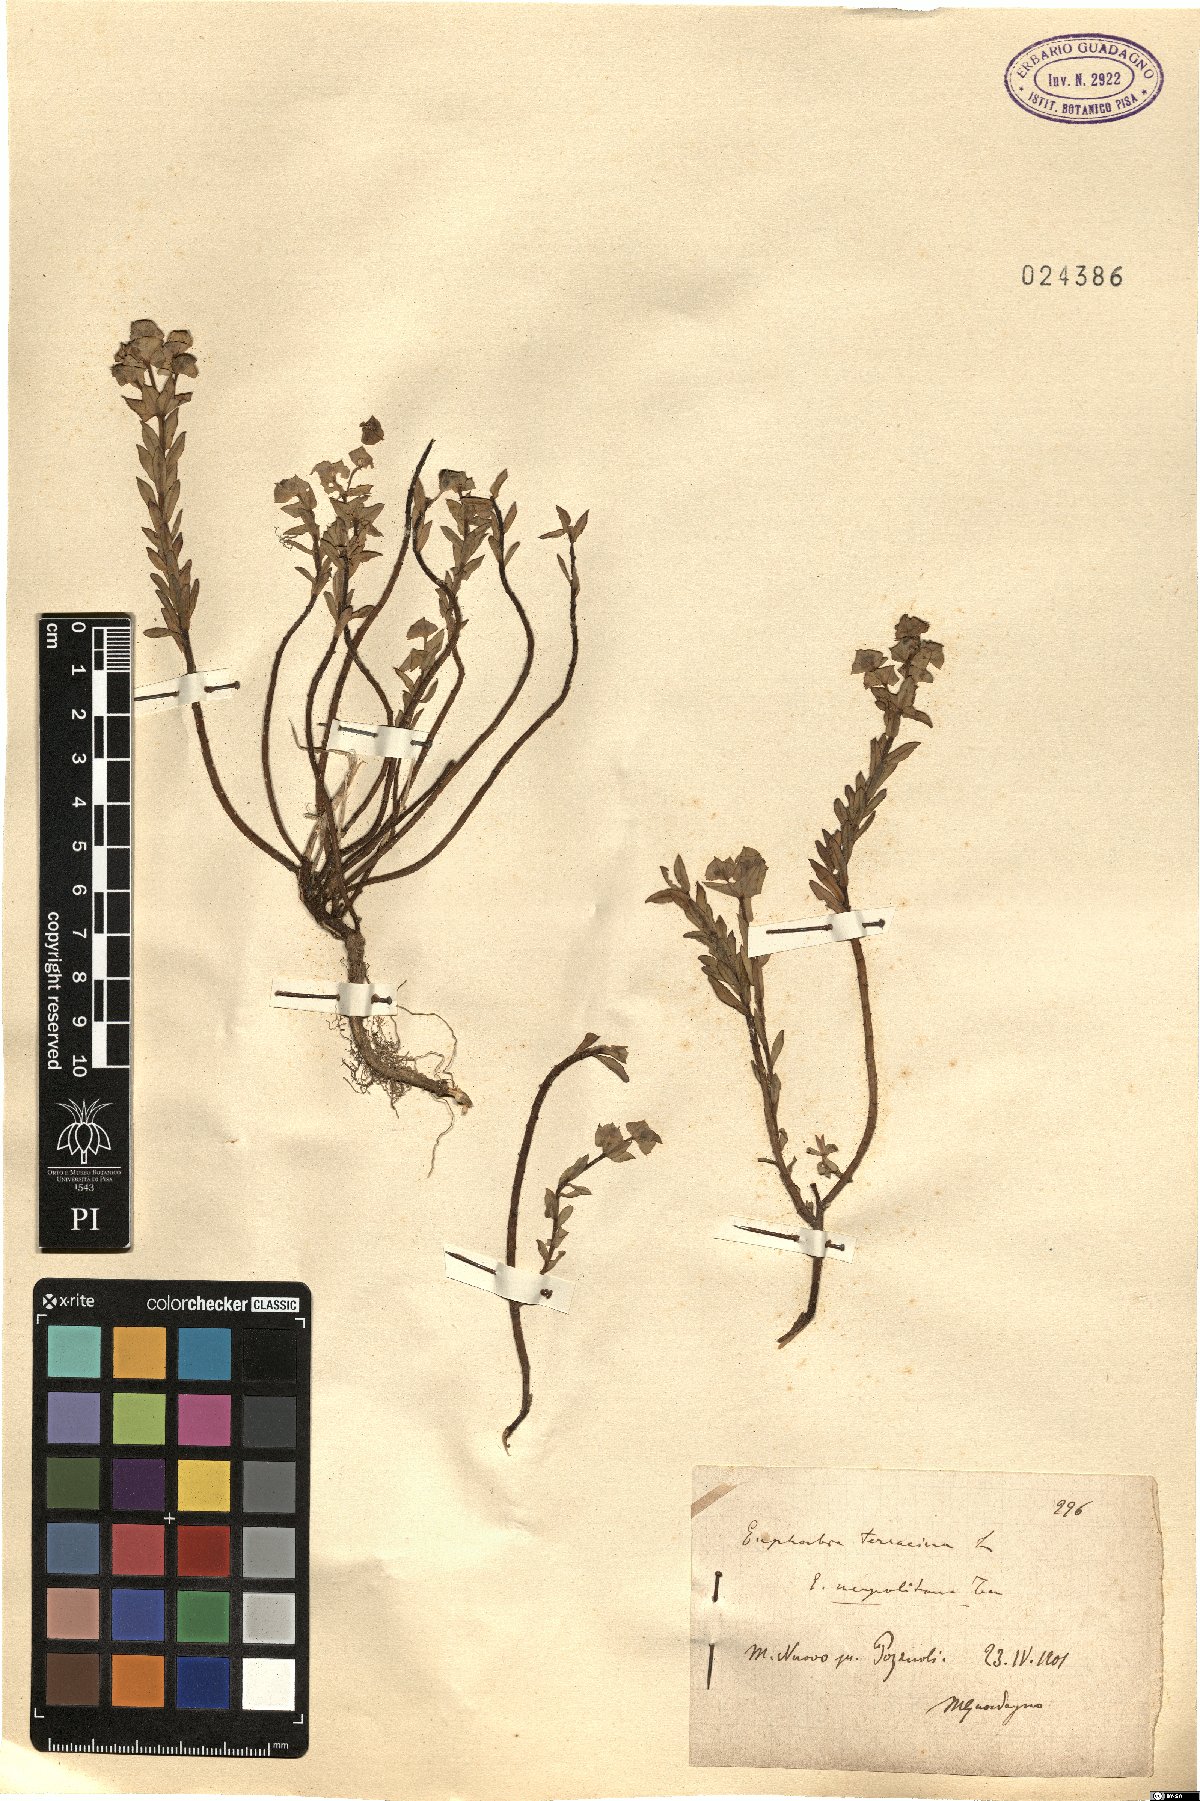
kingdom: Plantae
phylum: Tracheophyta
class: Magnoliopsida
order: Malpighiales
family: Euphorbiaceae
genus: Euphorbia
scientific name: Euphorbia terracina
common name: Geraldton carnation weed
